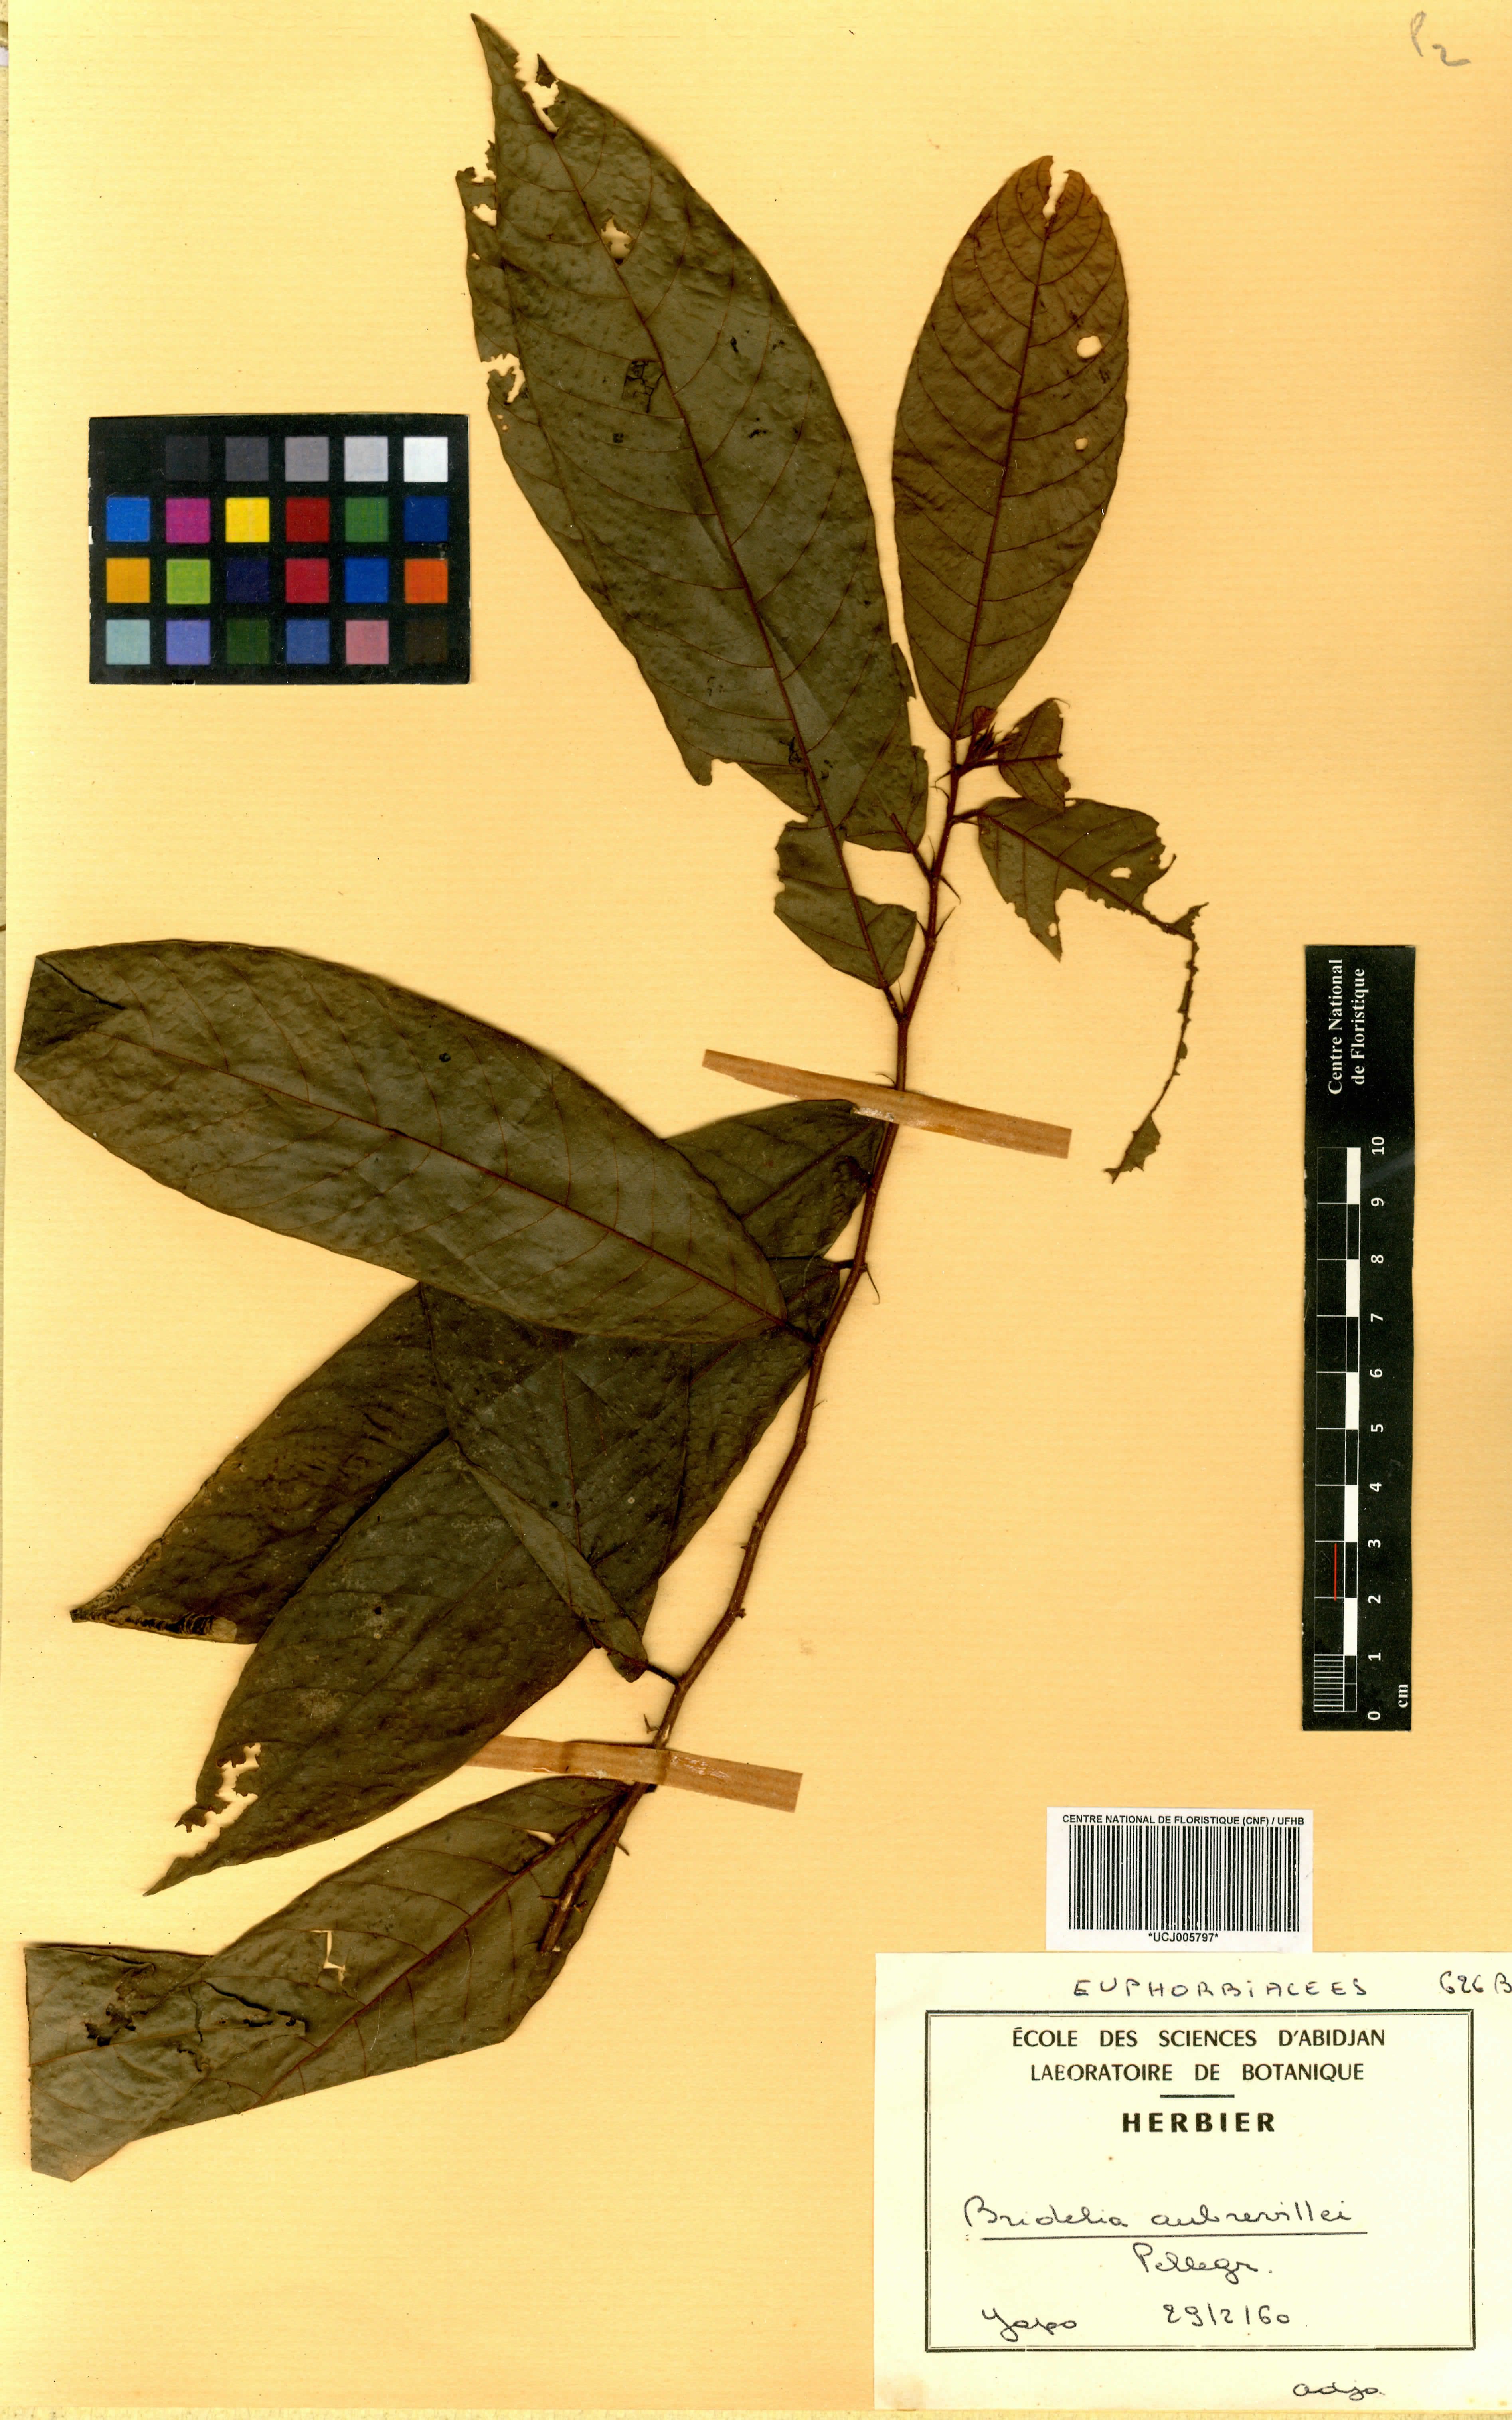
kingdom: Plantae
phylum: Tracheophyta
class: Magnoliopsida
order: Malpighiales
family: Phyllanthaceae
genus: Bridelia
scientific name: Bridelia grandis
